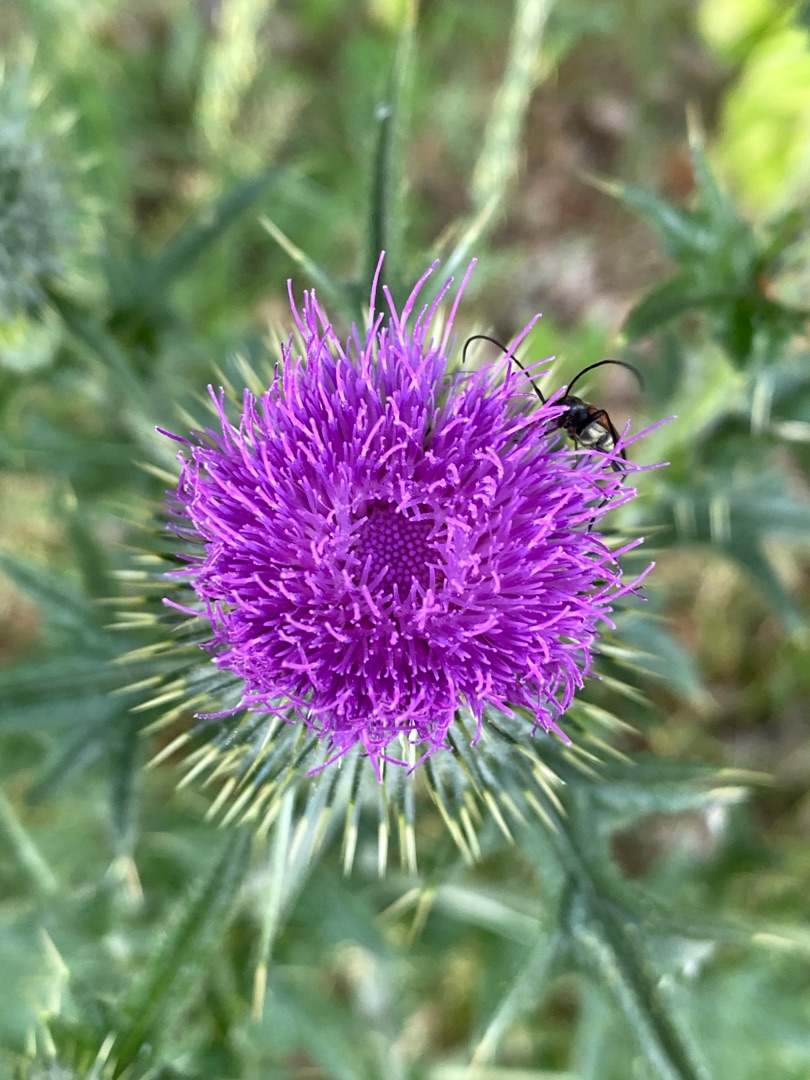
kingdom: Plantae
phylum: Tracheophyta
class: Magnoliopsida
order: Asterales
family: Asteraceae
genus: Cirsium
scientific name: Cirsium vulgare
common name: Horse-tidsel
